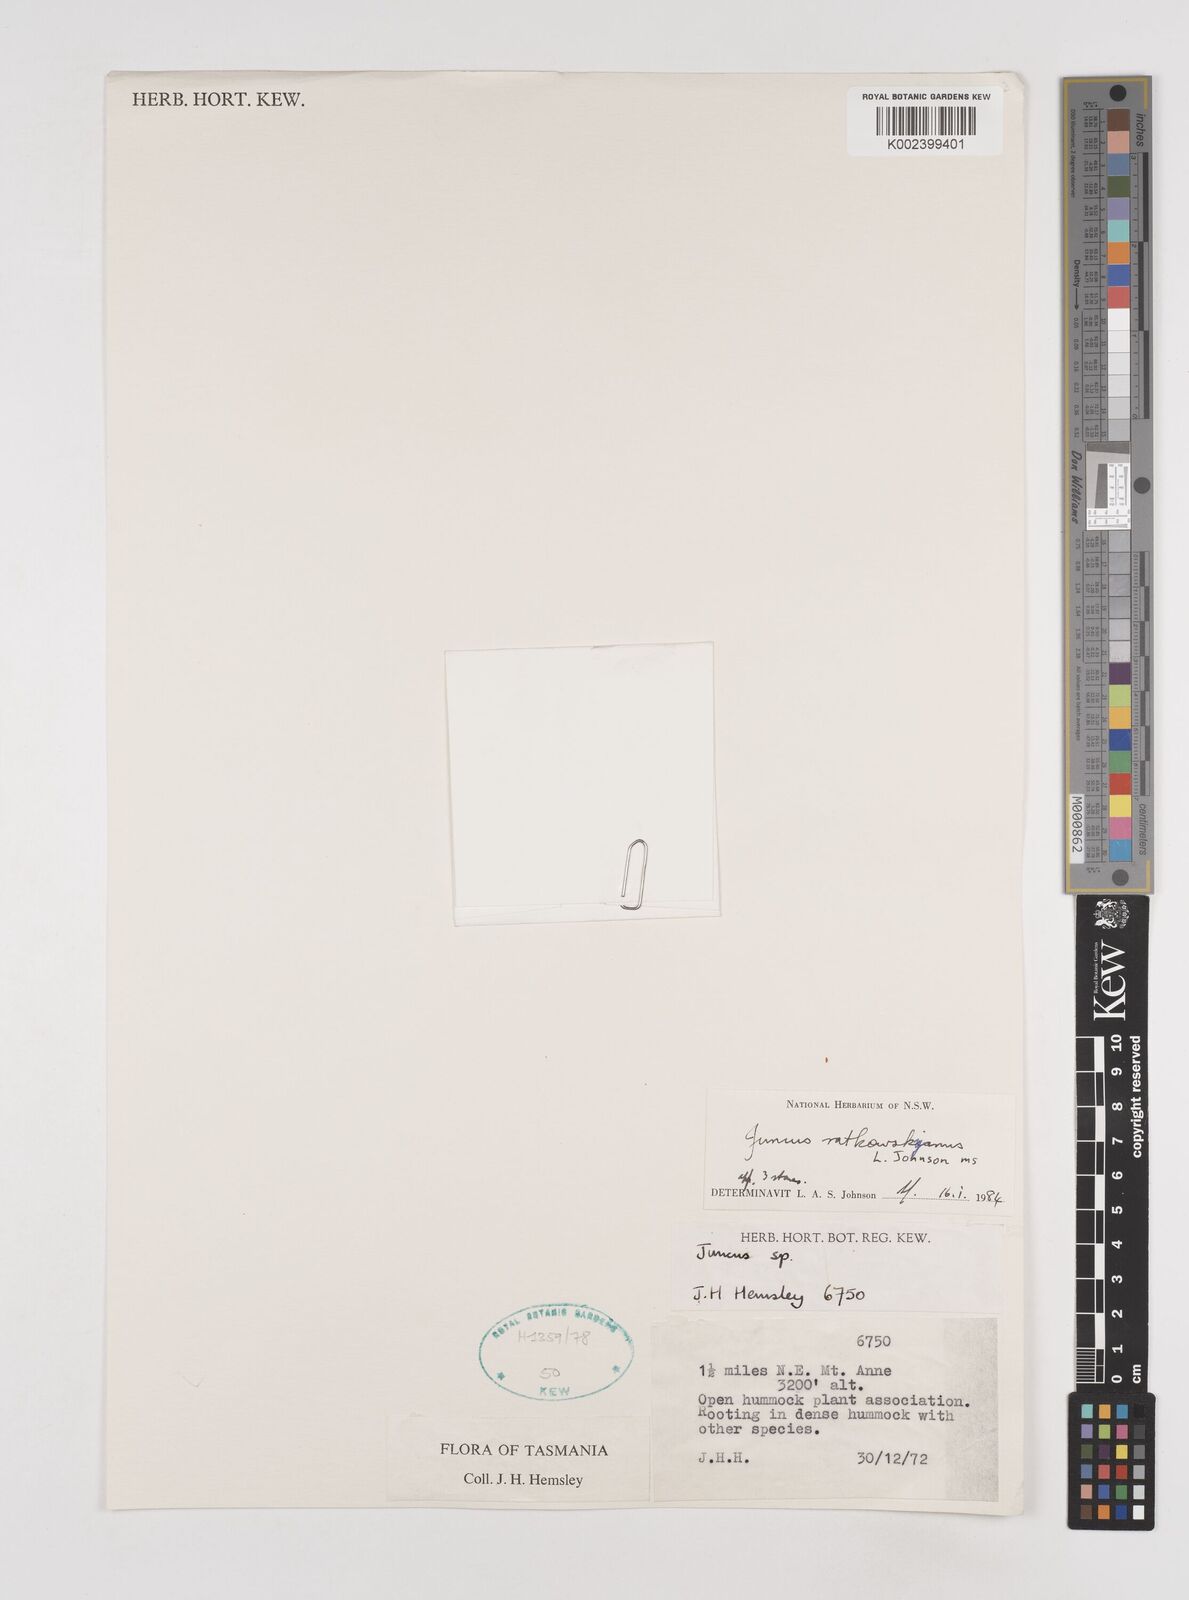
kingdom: Plantae
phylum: Tracheophyta
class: Liliopsida
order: Poales
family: Juncaceae
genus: Juncus
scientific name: Juncus ratkowskyanus
